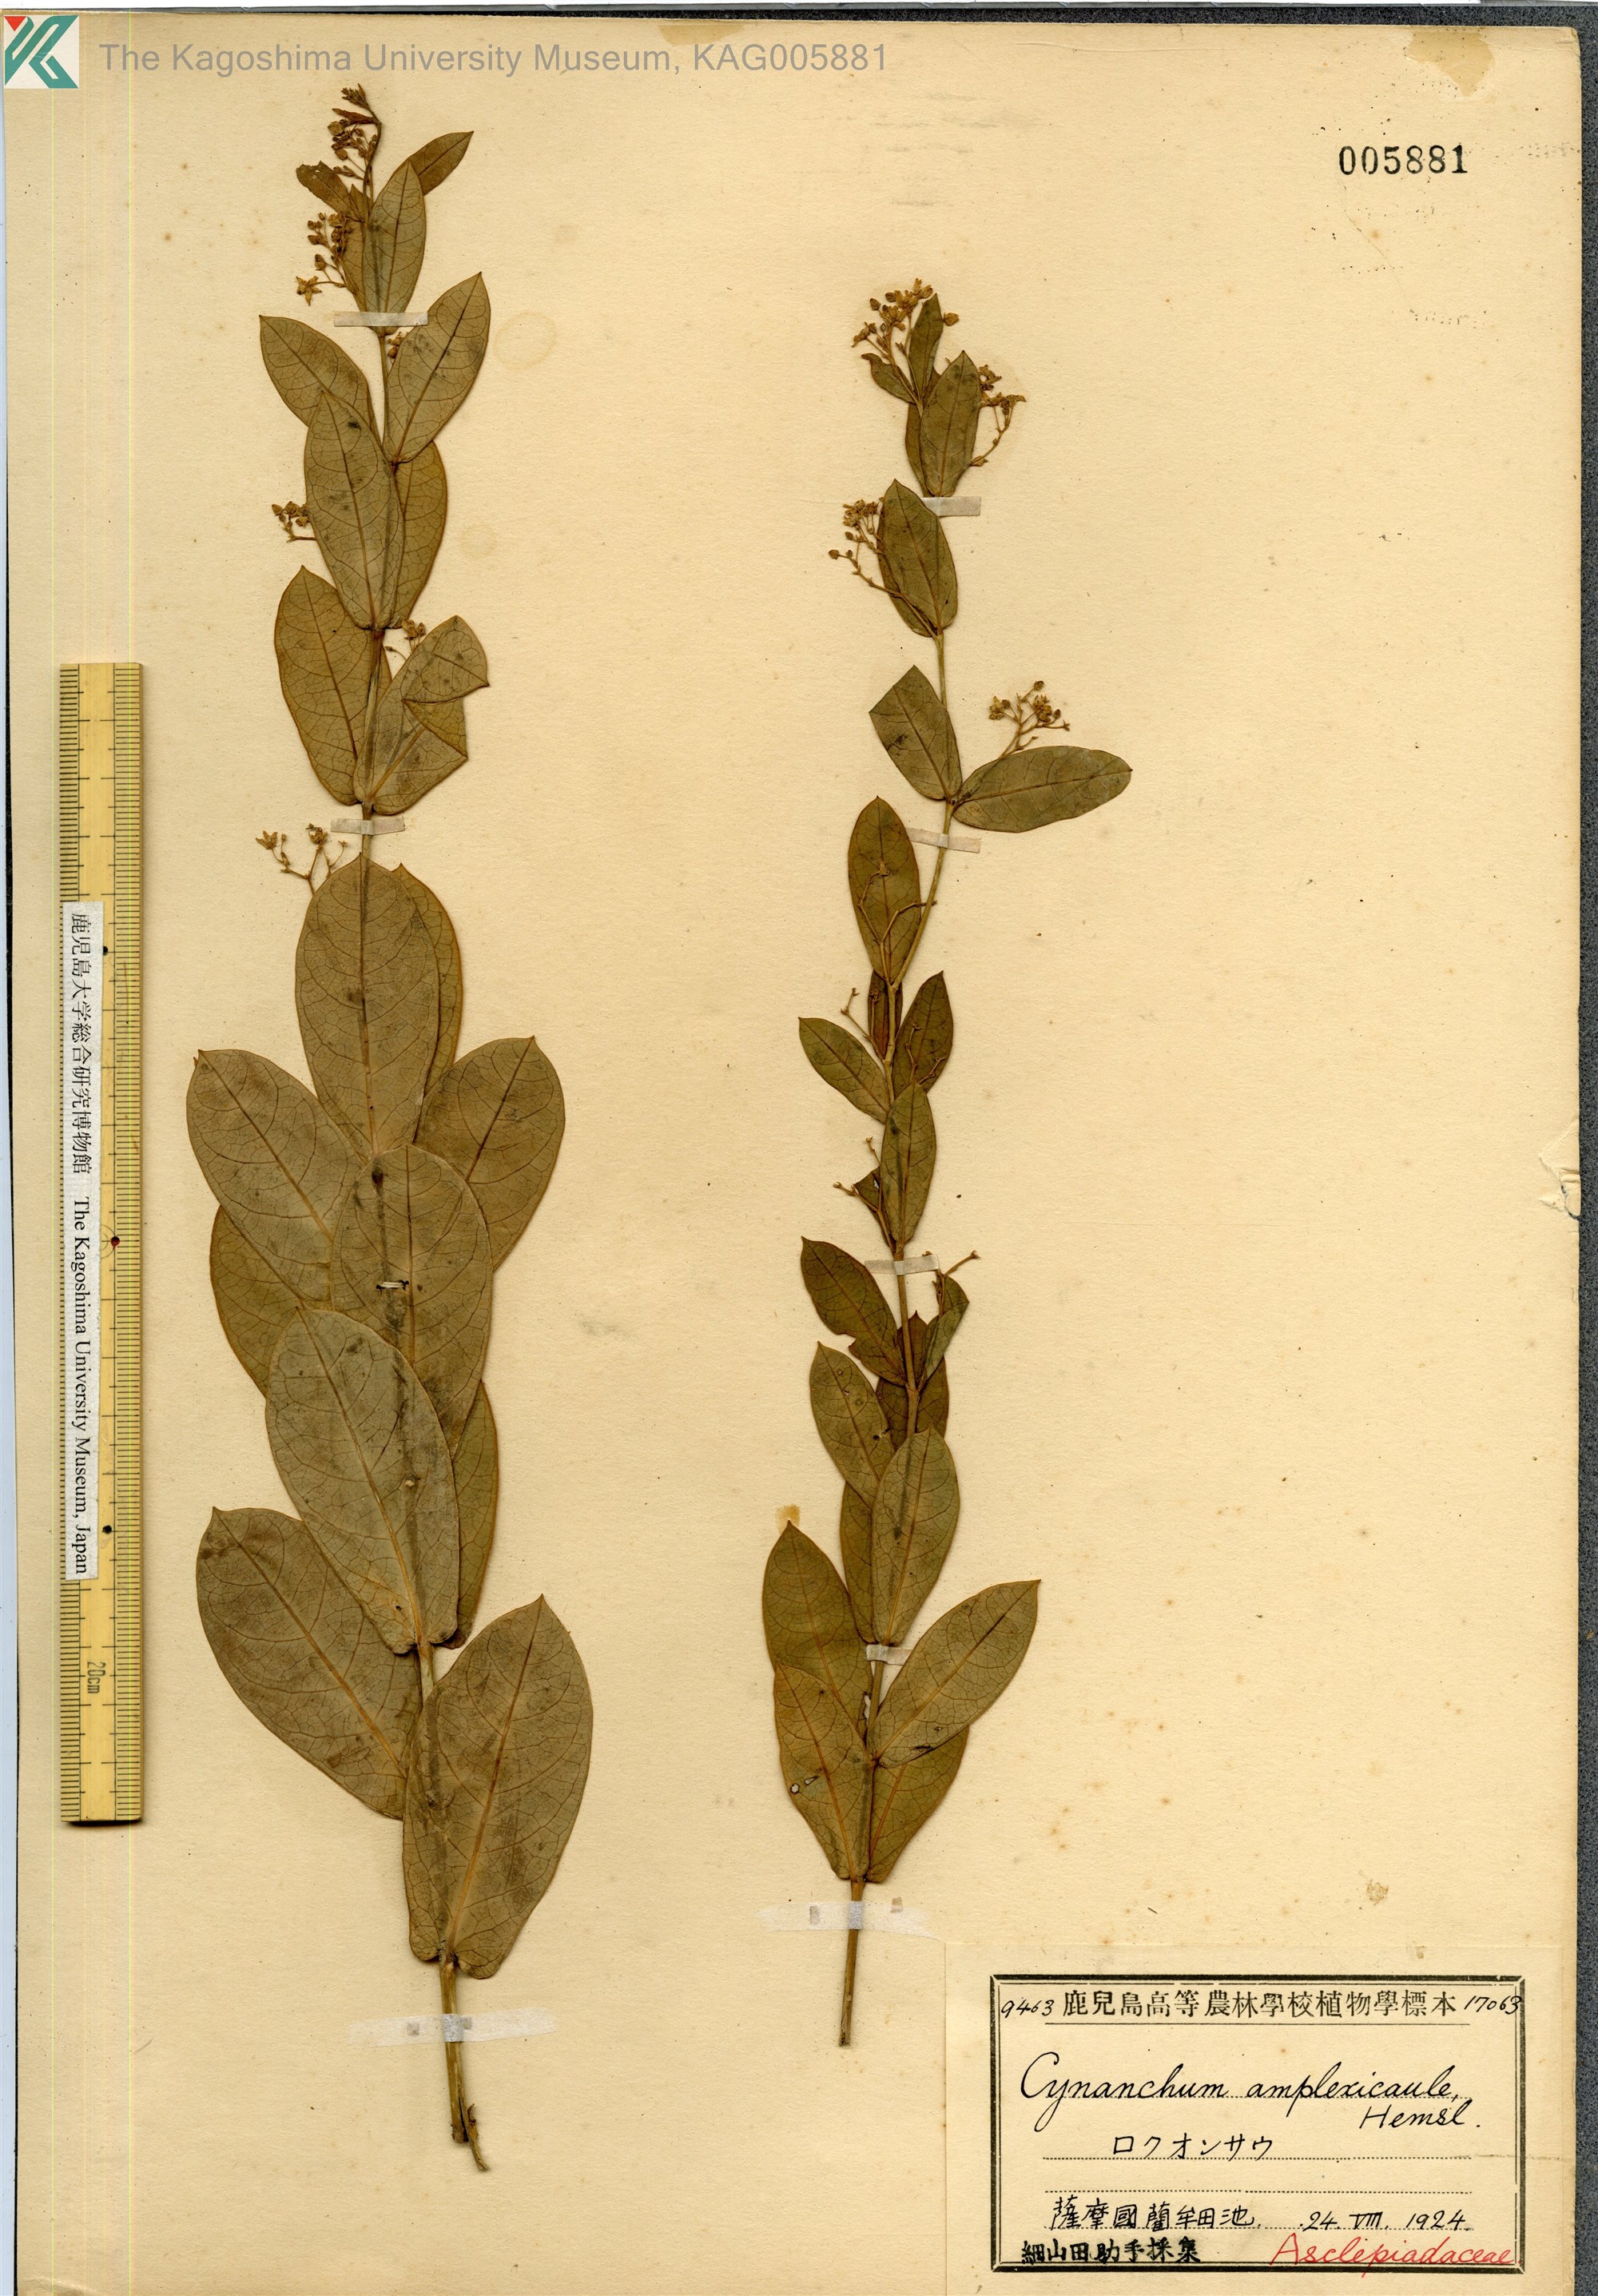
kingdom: Plantae
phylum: Tracheophyta
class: Magnoliopsida
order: Gentianales
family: Apocynaceae
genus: Vincetoxicum
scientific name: Vincetoxicum amplexicaule
